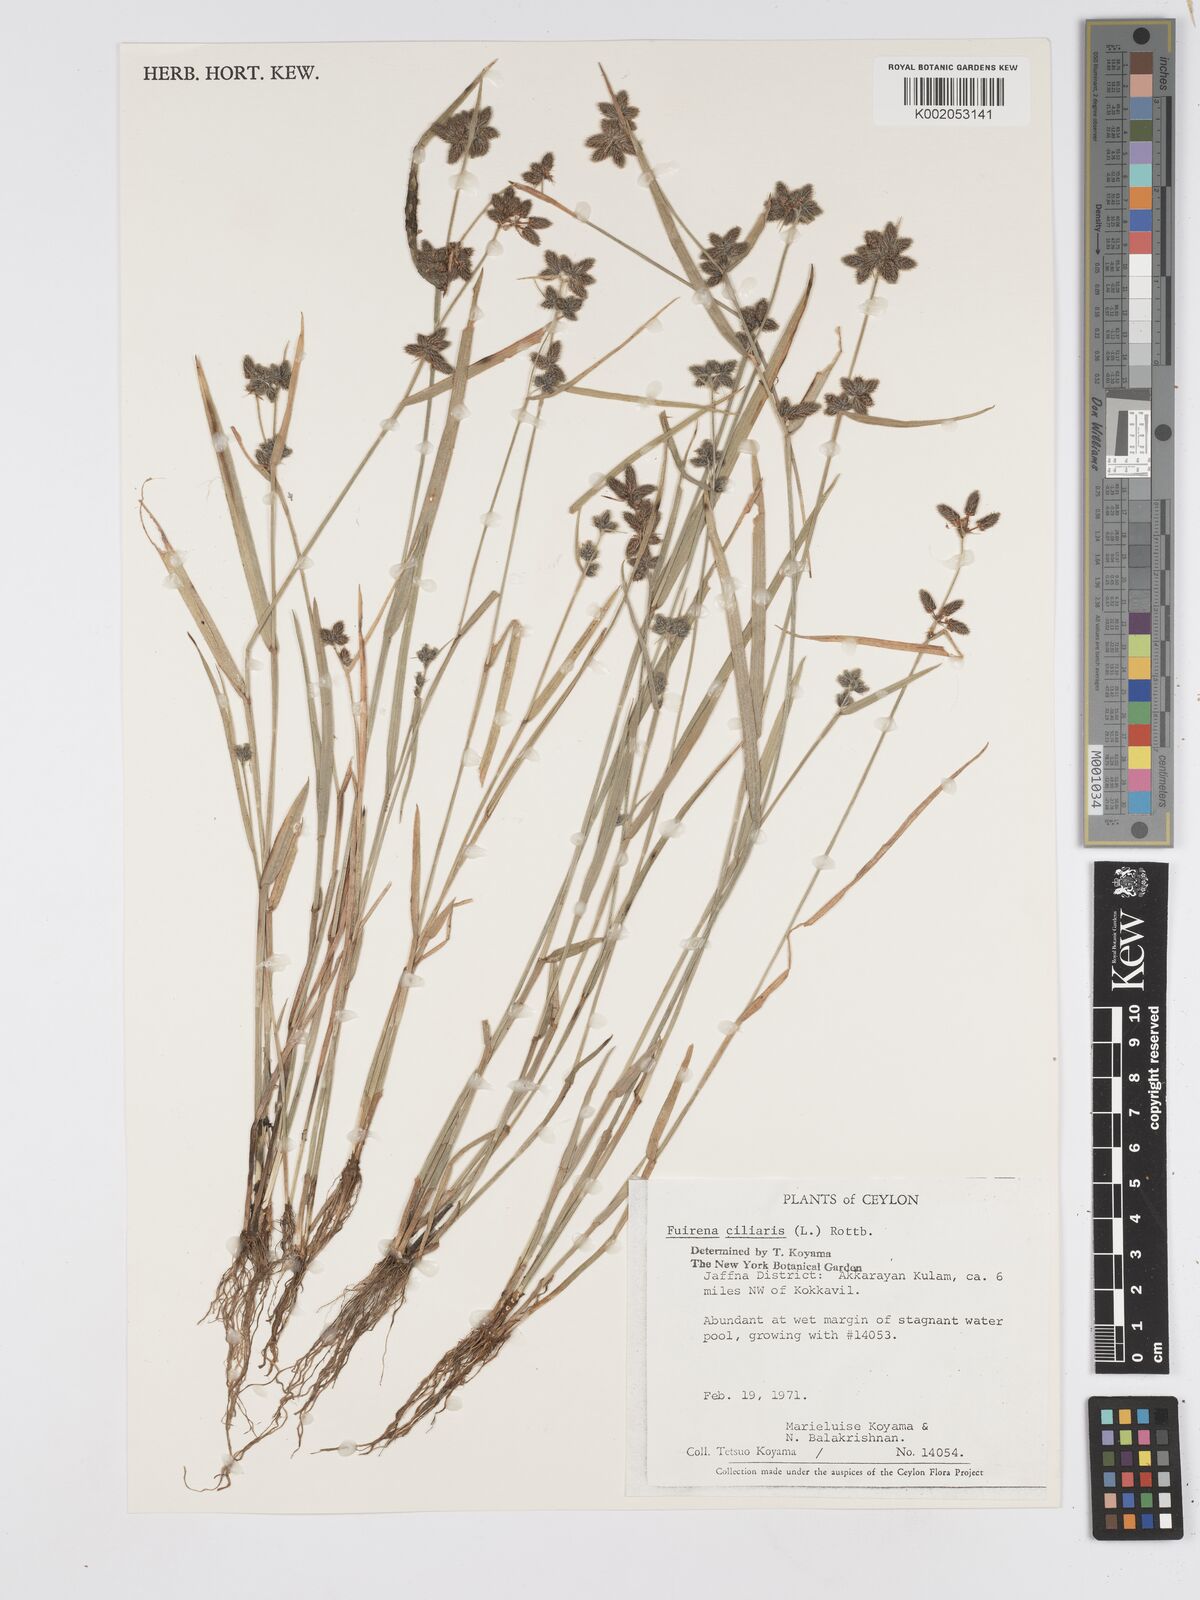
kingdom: Plantae
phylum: Tracheophyta
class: Liliopsida
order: Poales
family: Cyperaceae
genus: Fuirena
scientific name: Fuirena ciliaris
